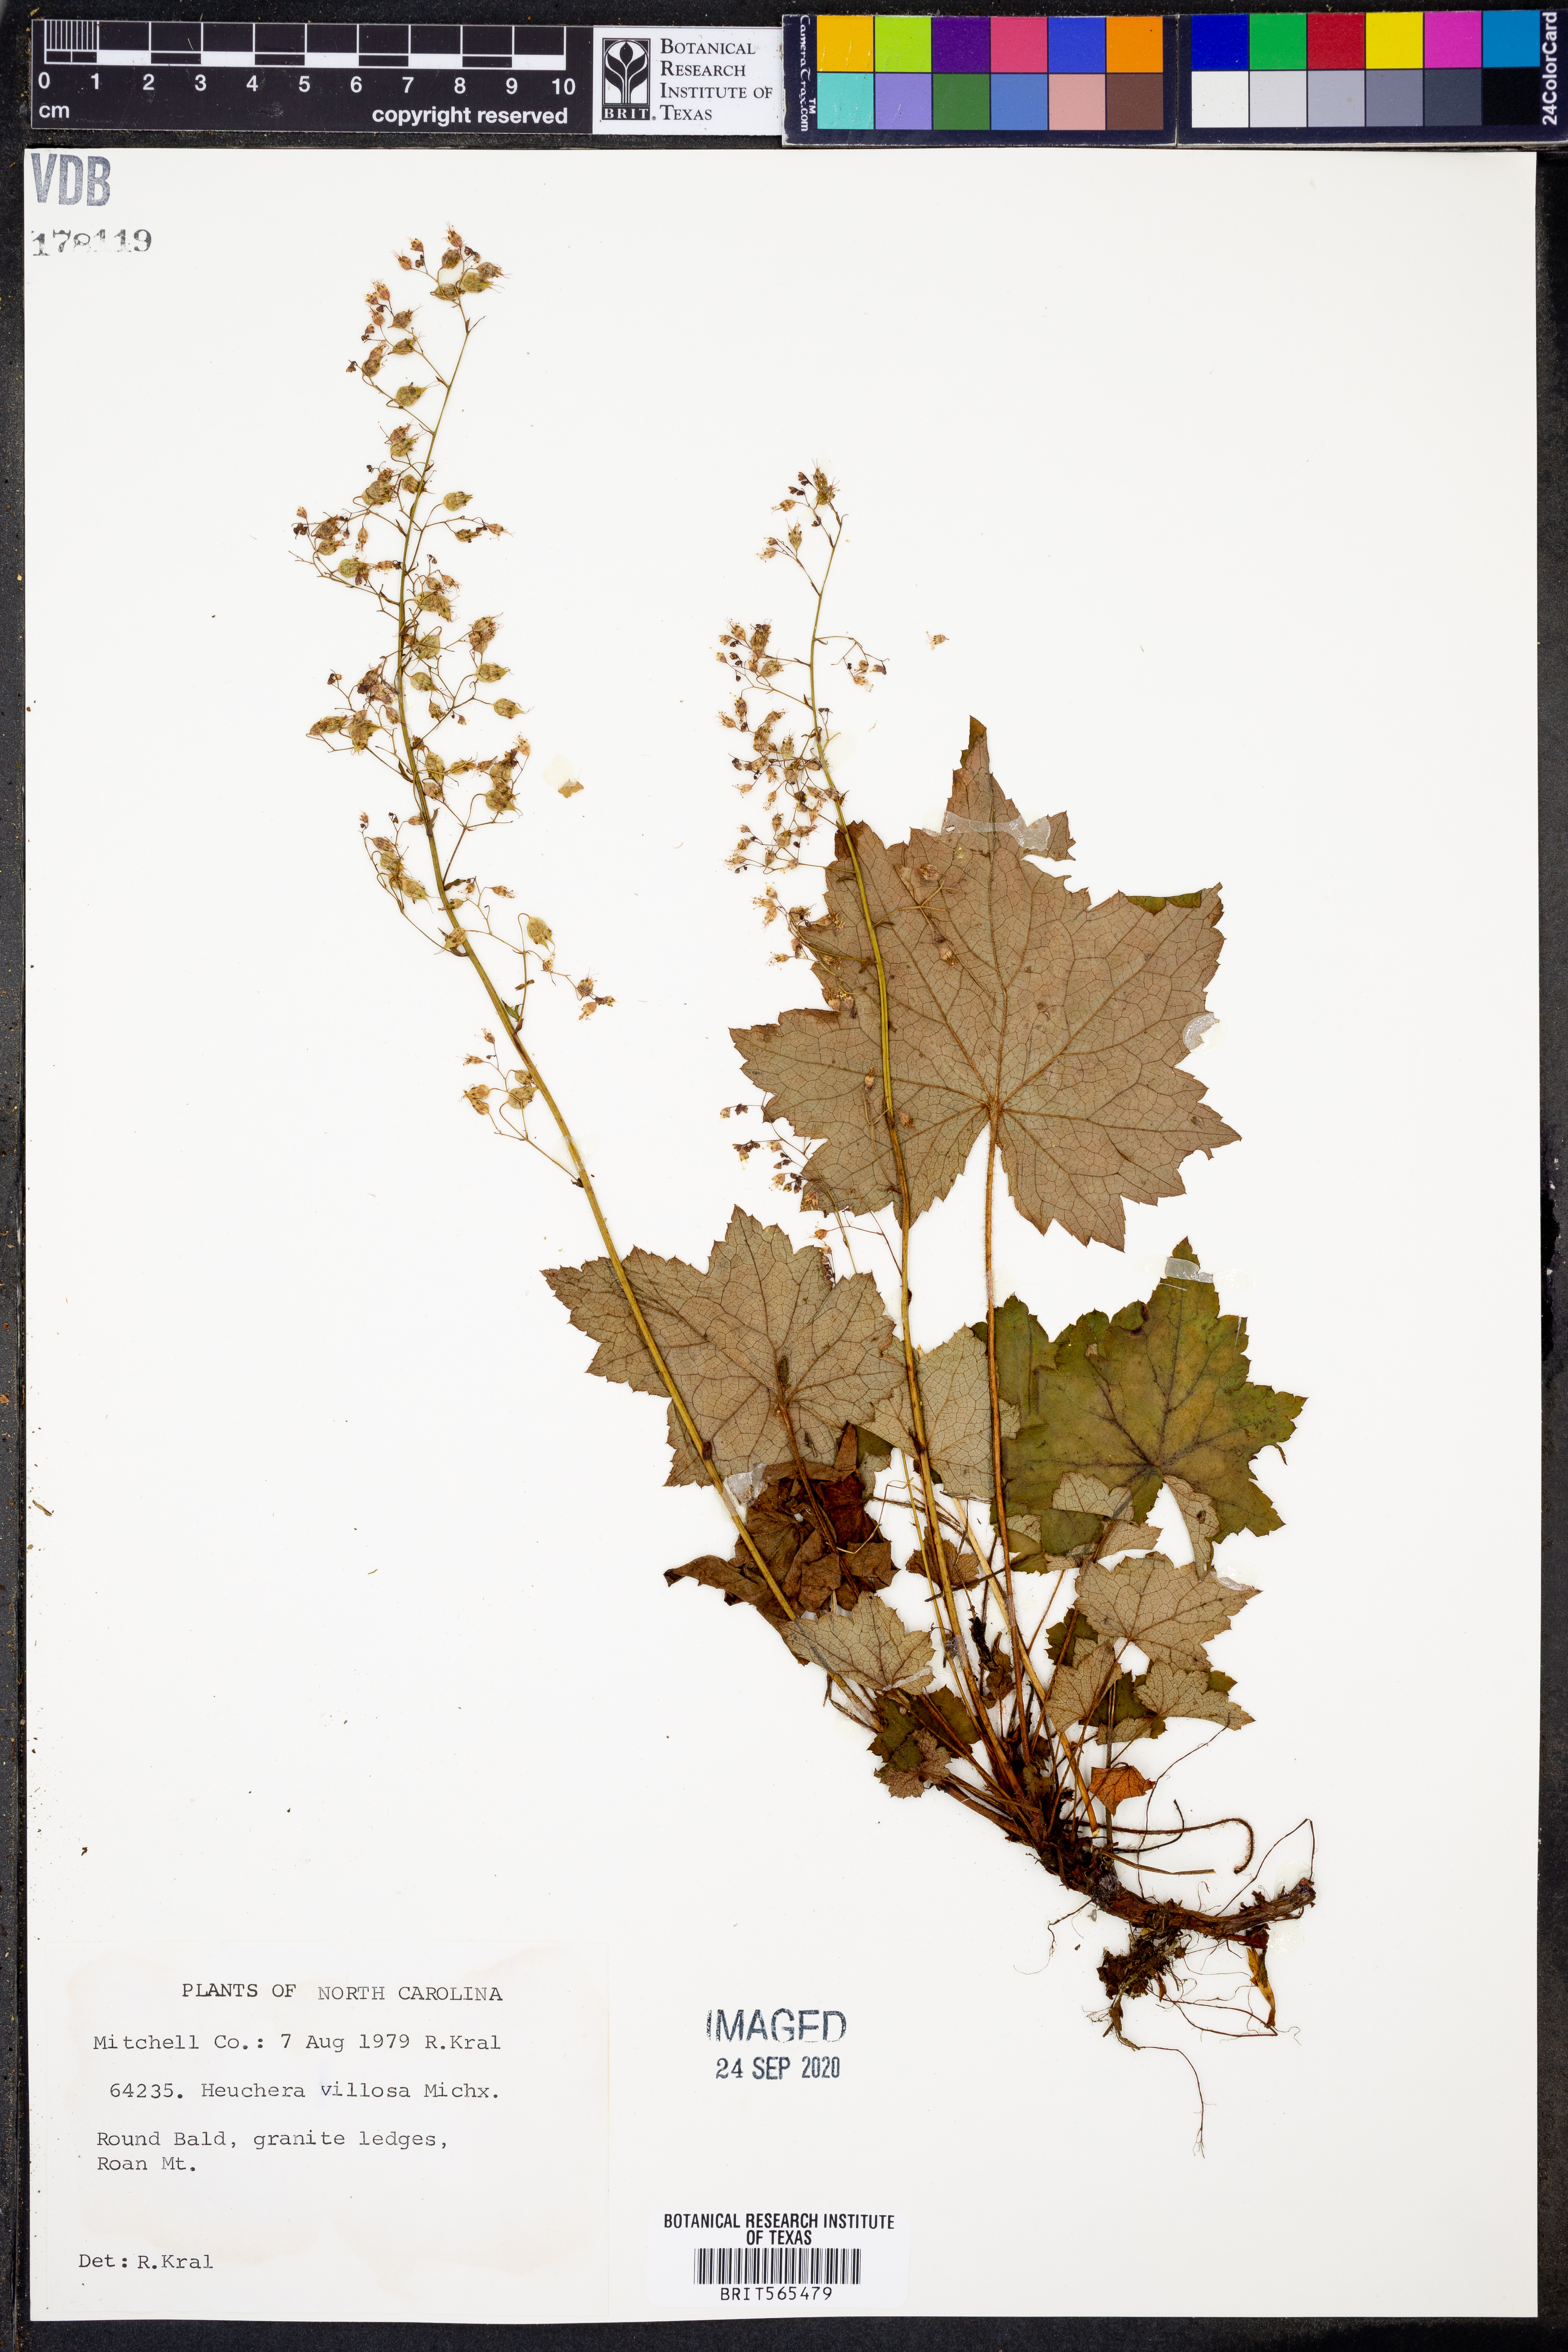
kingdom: Plantae
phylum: Tracheophyta
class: Magnoliopsida
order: Saxifragales
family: Saxifragaceae
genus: Heuchera
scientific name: Heuchera villosa
